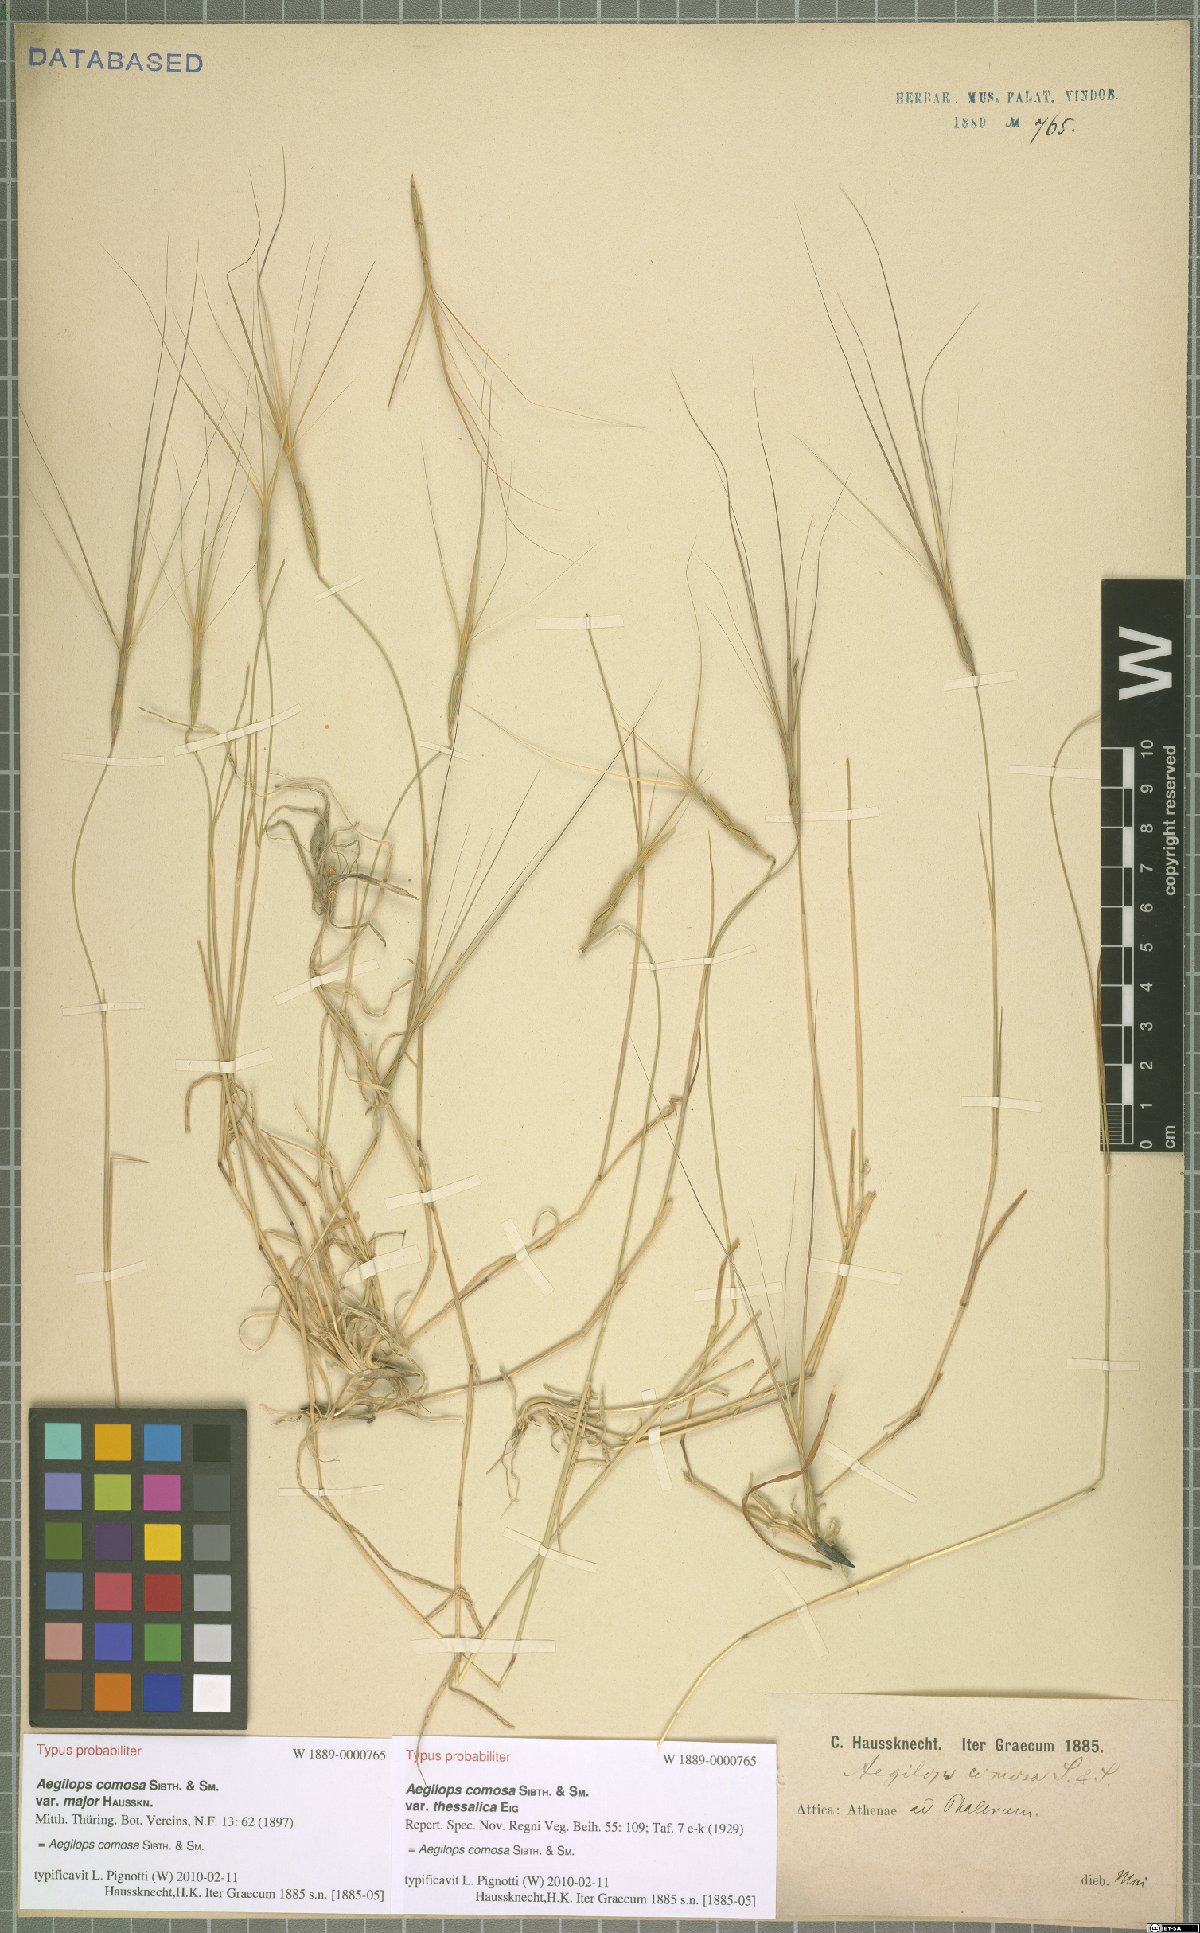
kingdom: Plantae
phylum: Tracheophyta
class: Liliopsida
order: Poales
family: Poaceae
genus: Aegilops
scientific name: Aegilops comosa
